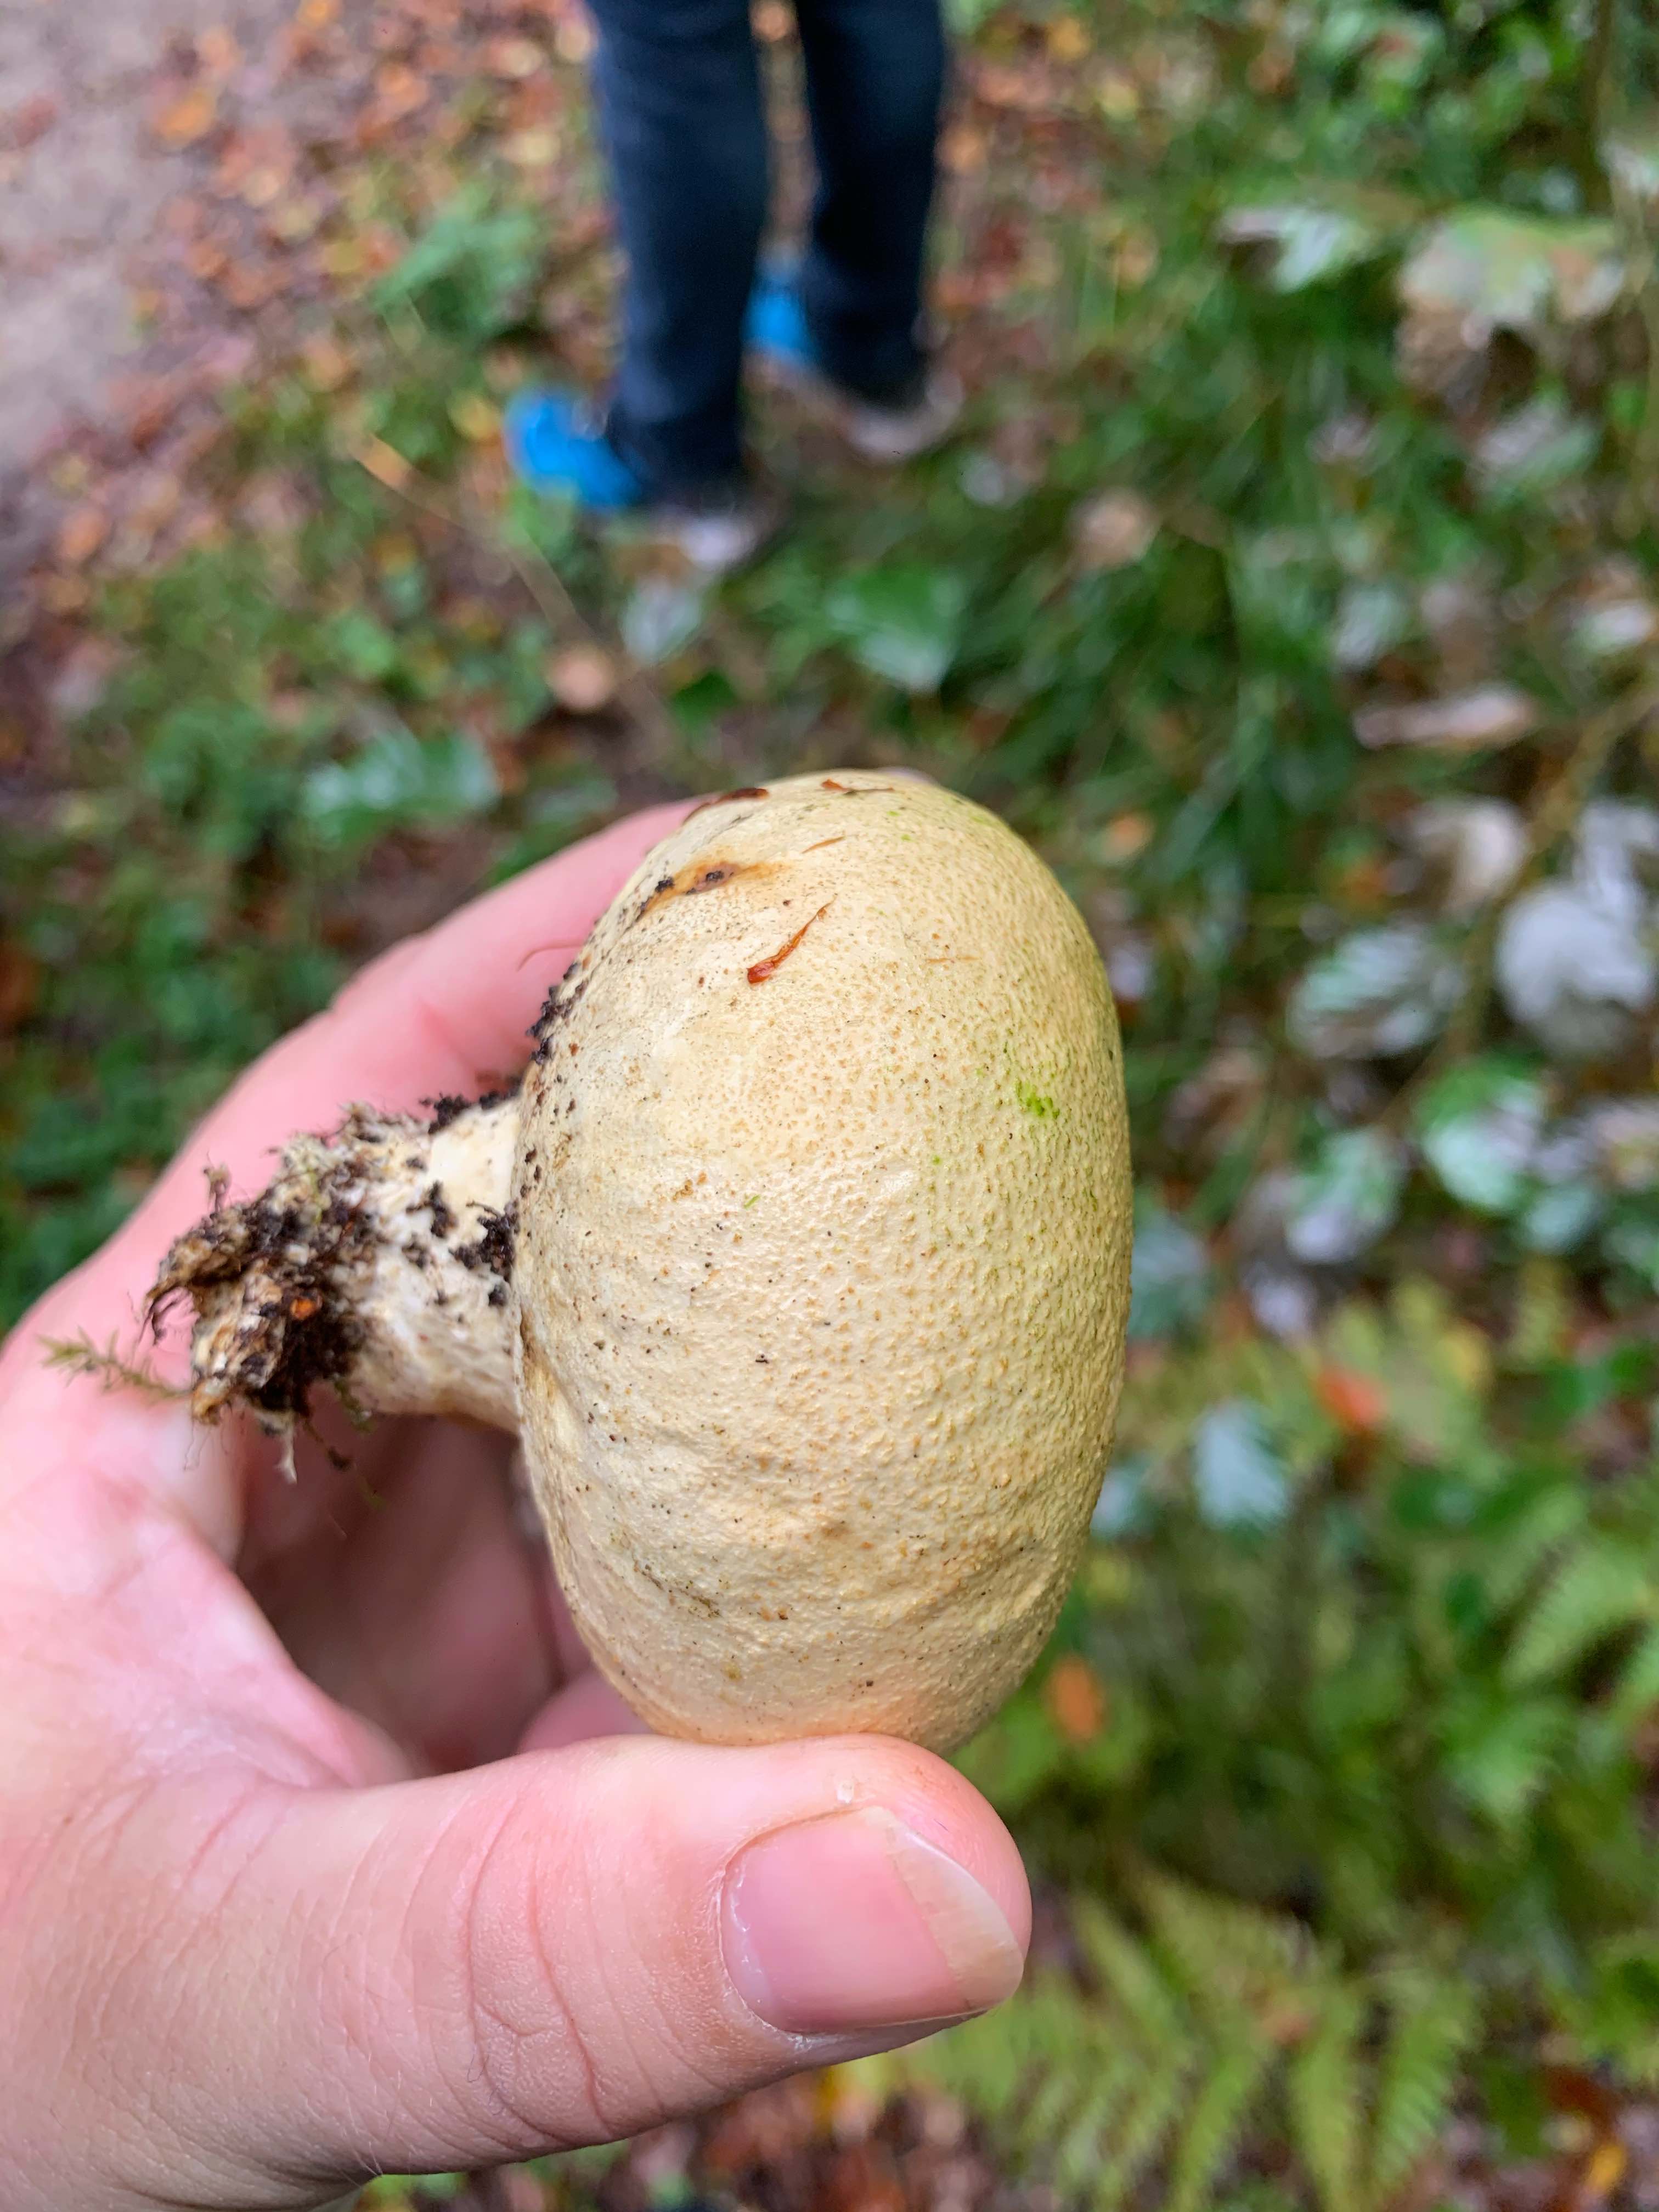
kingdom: Fungi
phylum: Basidiomycota
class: Agaricomycetes
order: Boletales
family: Sclerodermataceae
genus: Scleroderma
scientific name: Scleroderma citrinum
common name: almindelig bruskbold
